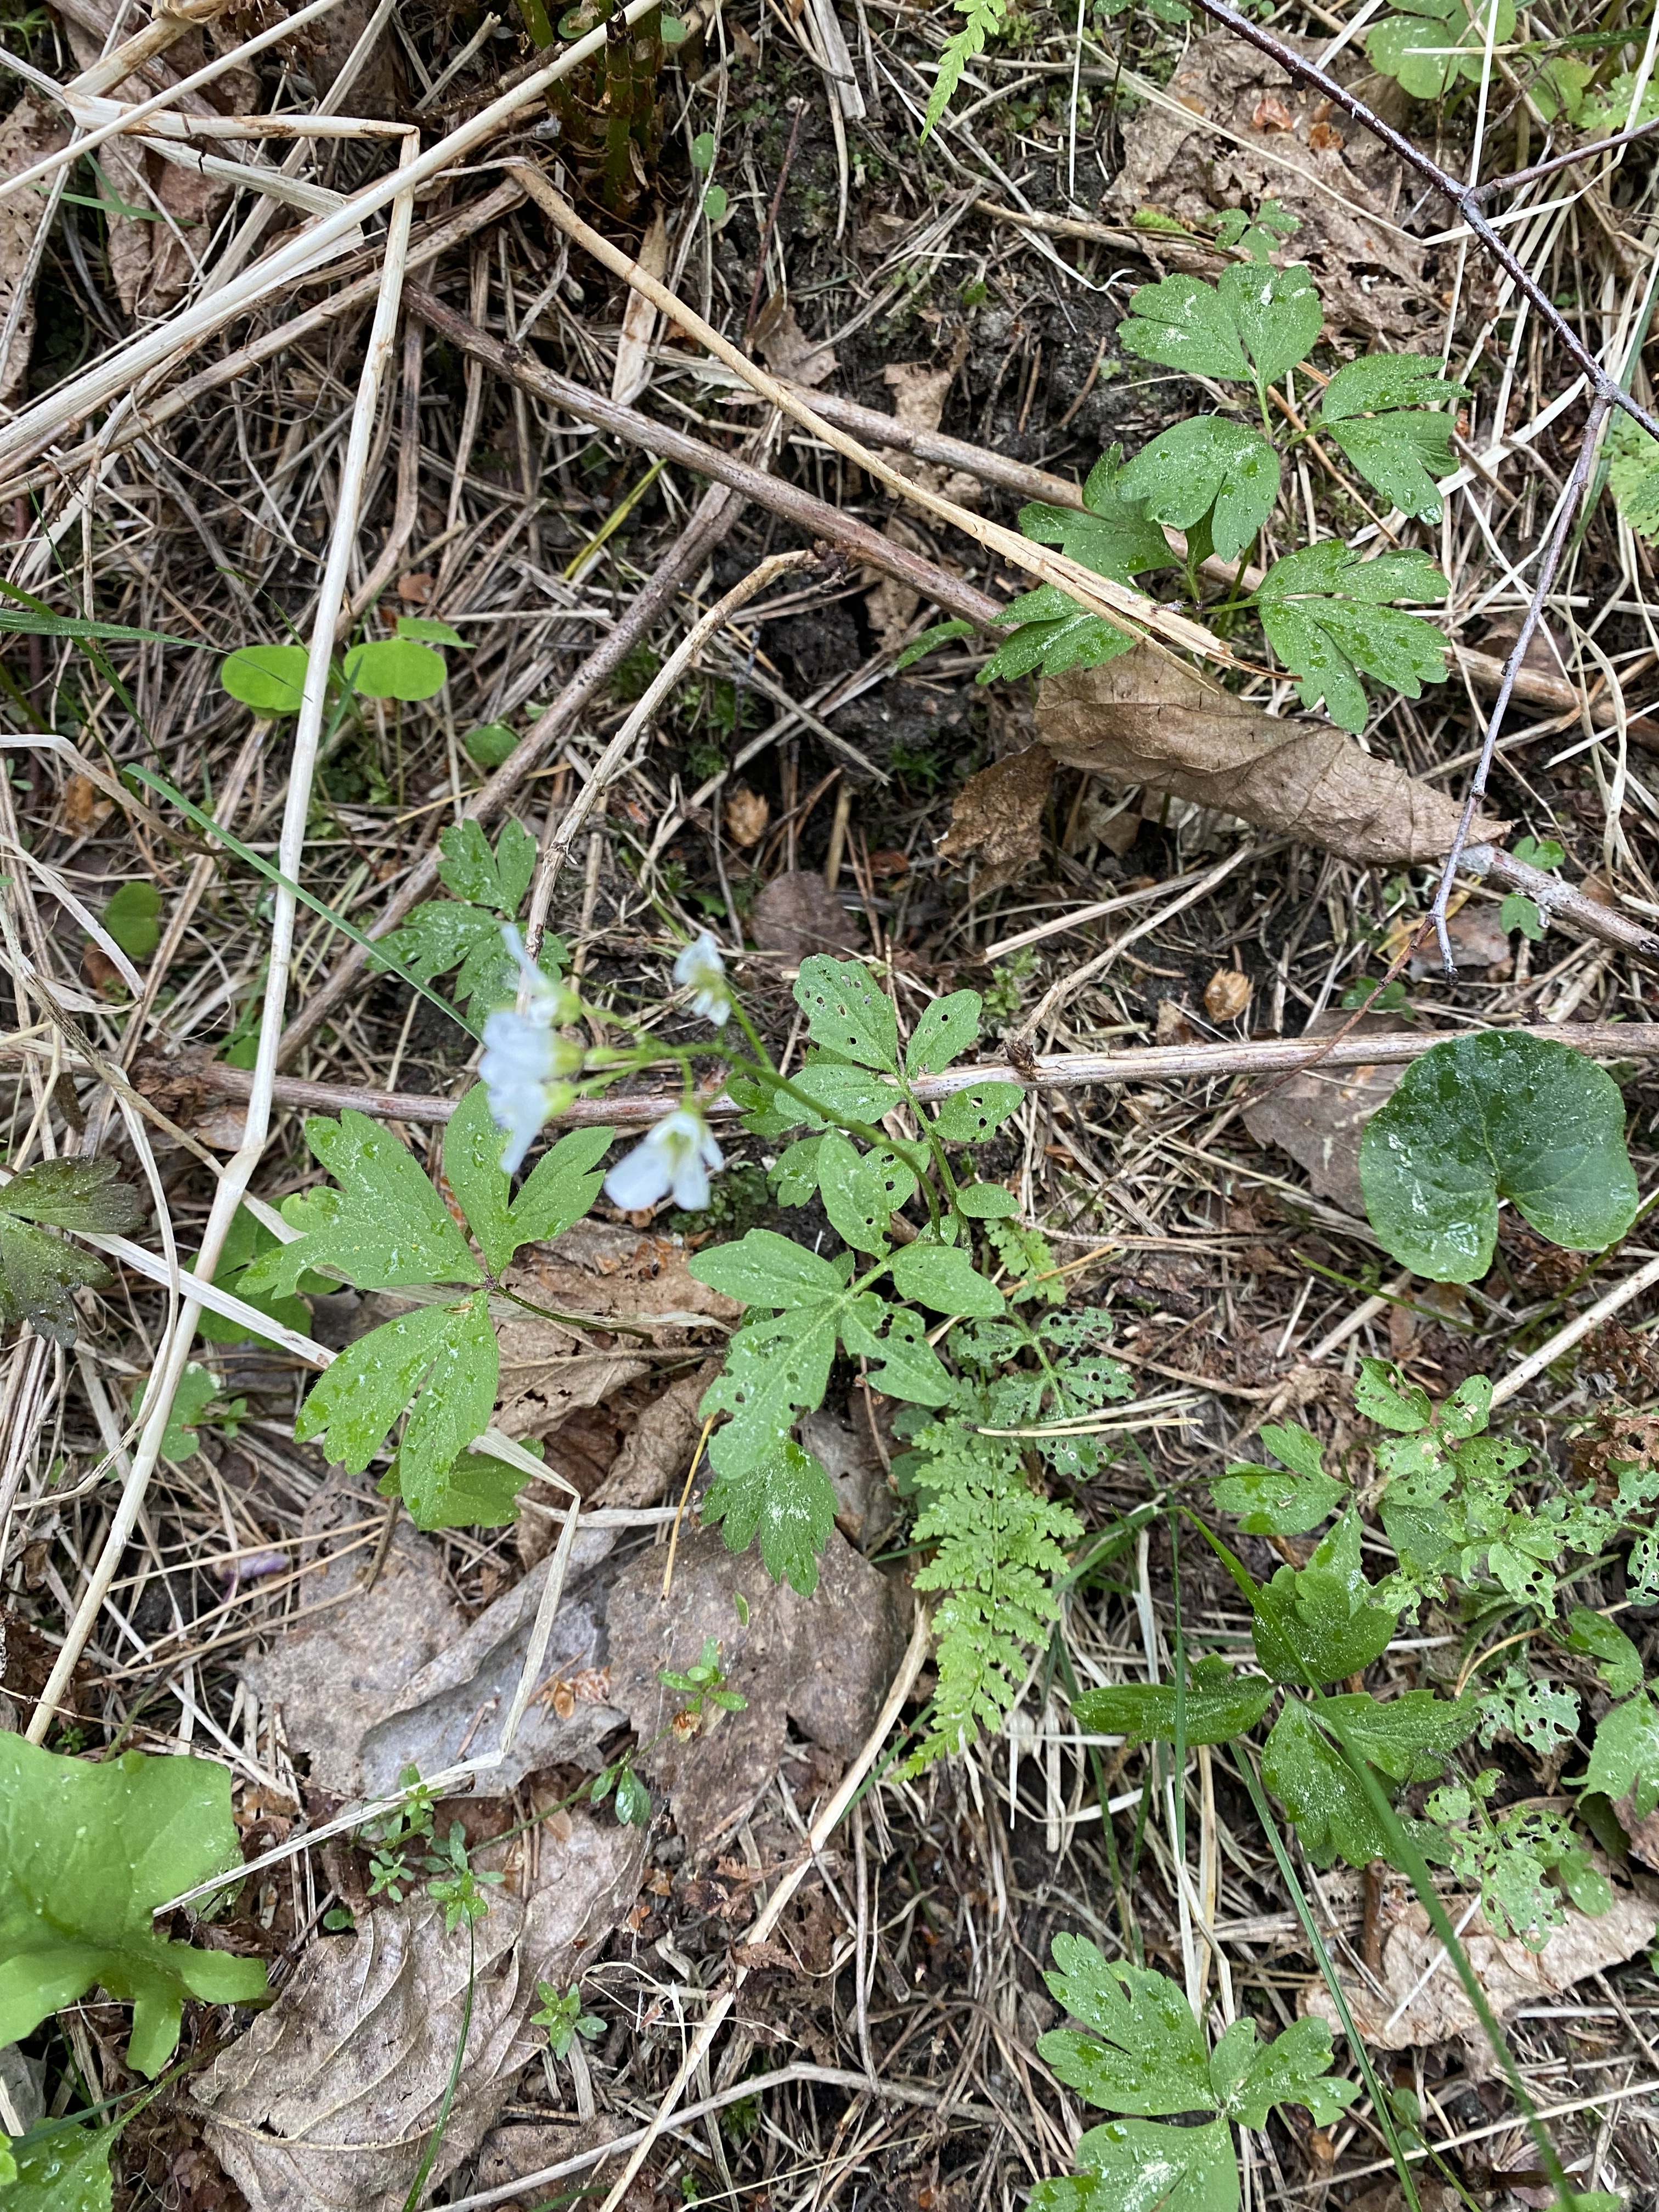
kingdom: Plantae
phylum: Tracheophyta
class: Magnoliopsida
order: Brassicales
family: Brassicaceae
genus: Cardamine
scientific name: Cardamine flexuosa
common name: Woodland bittercress
